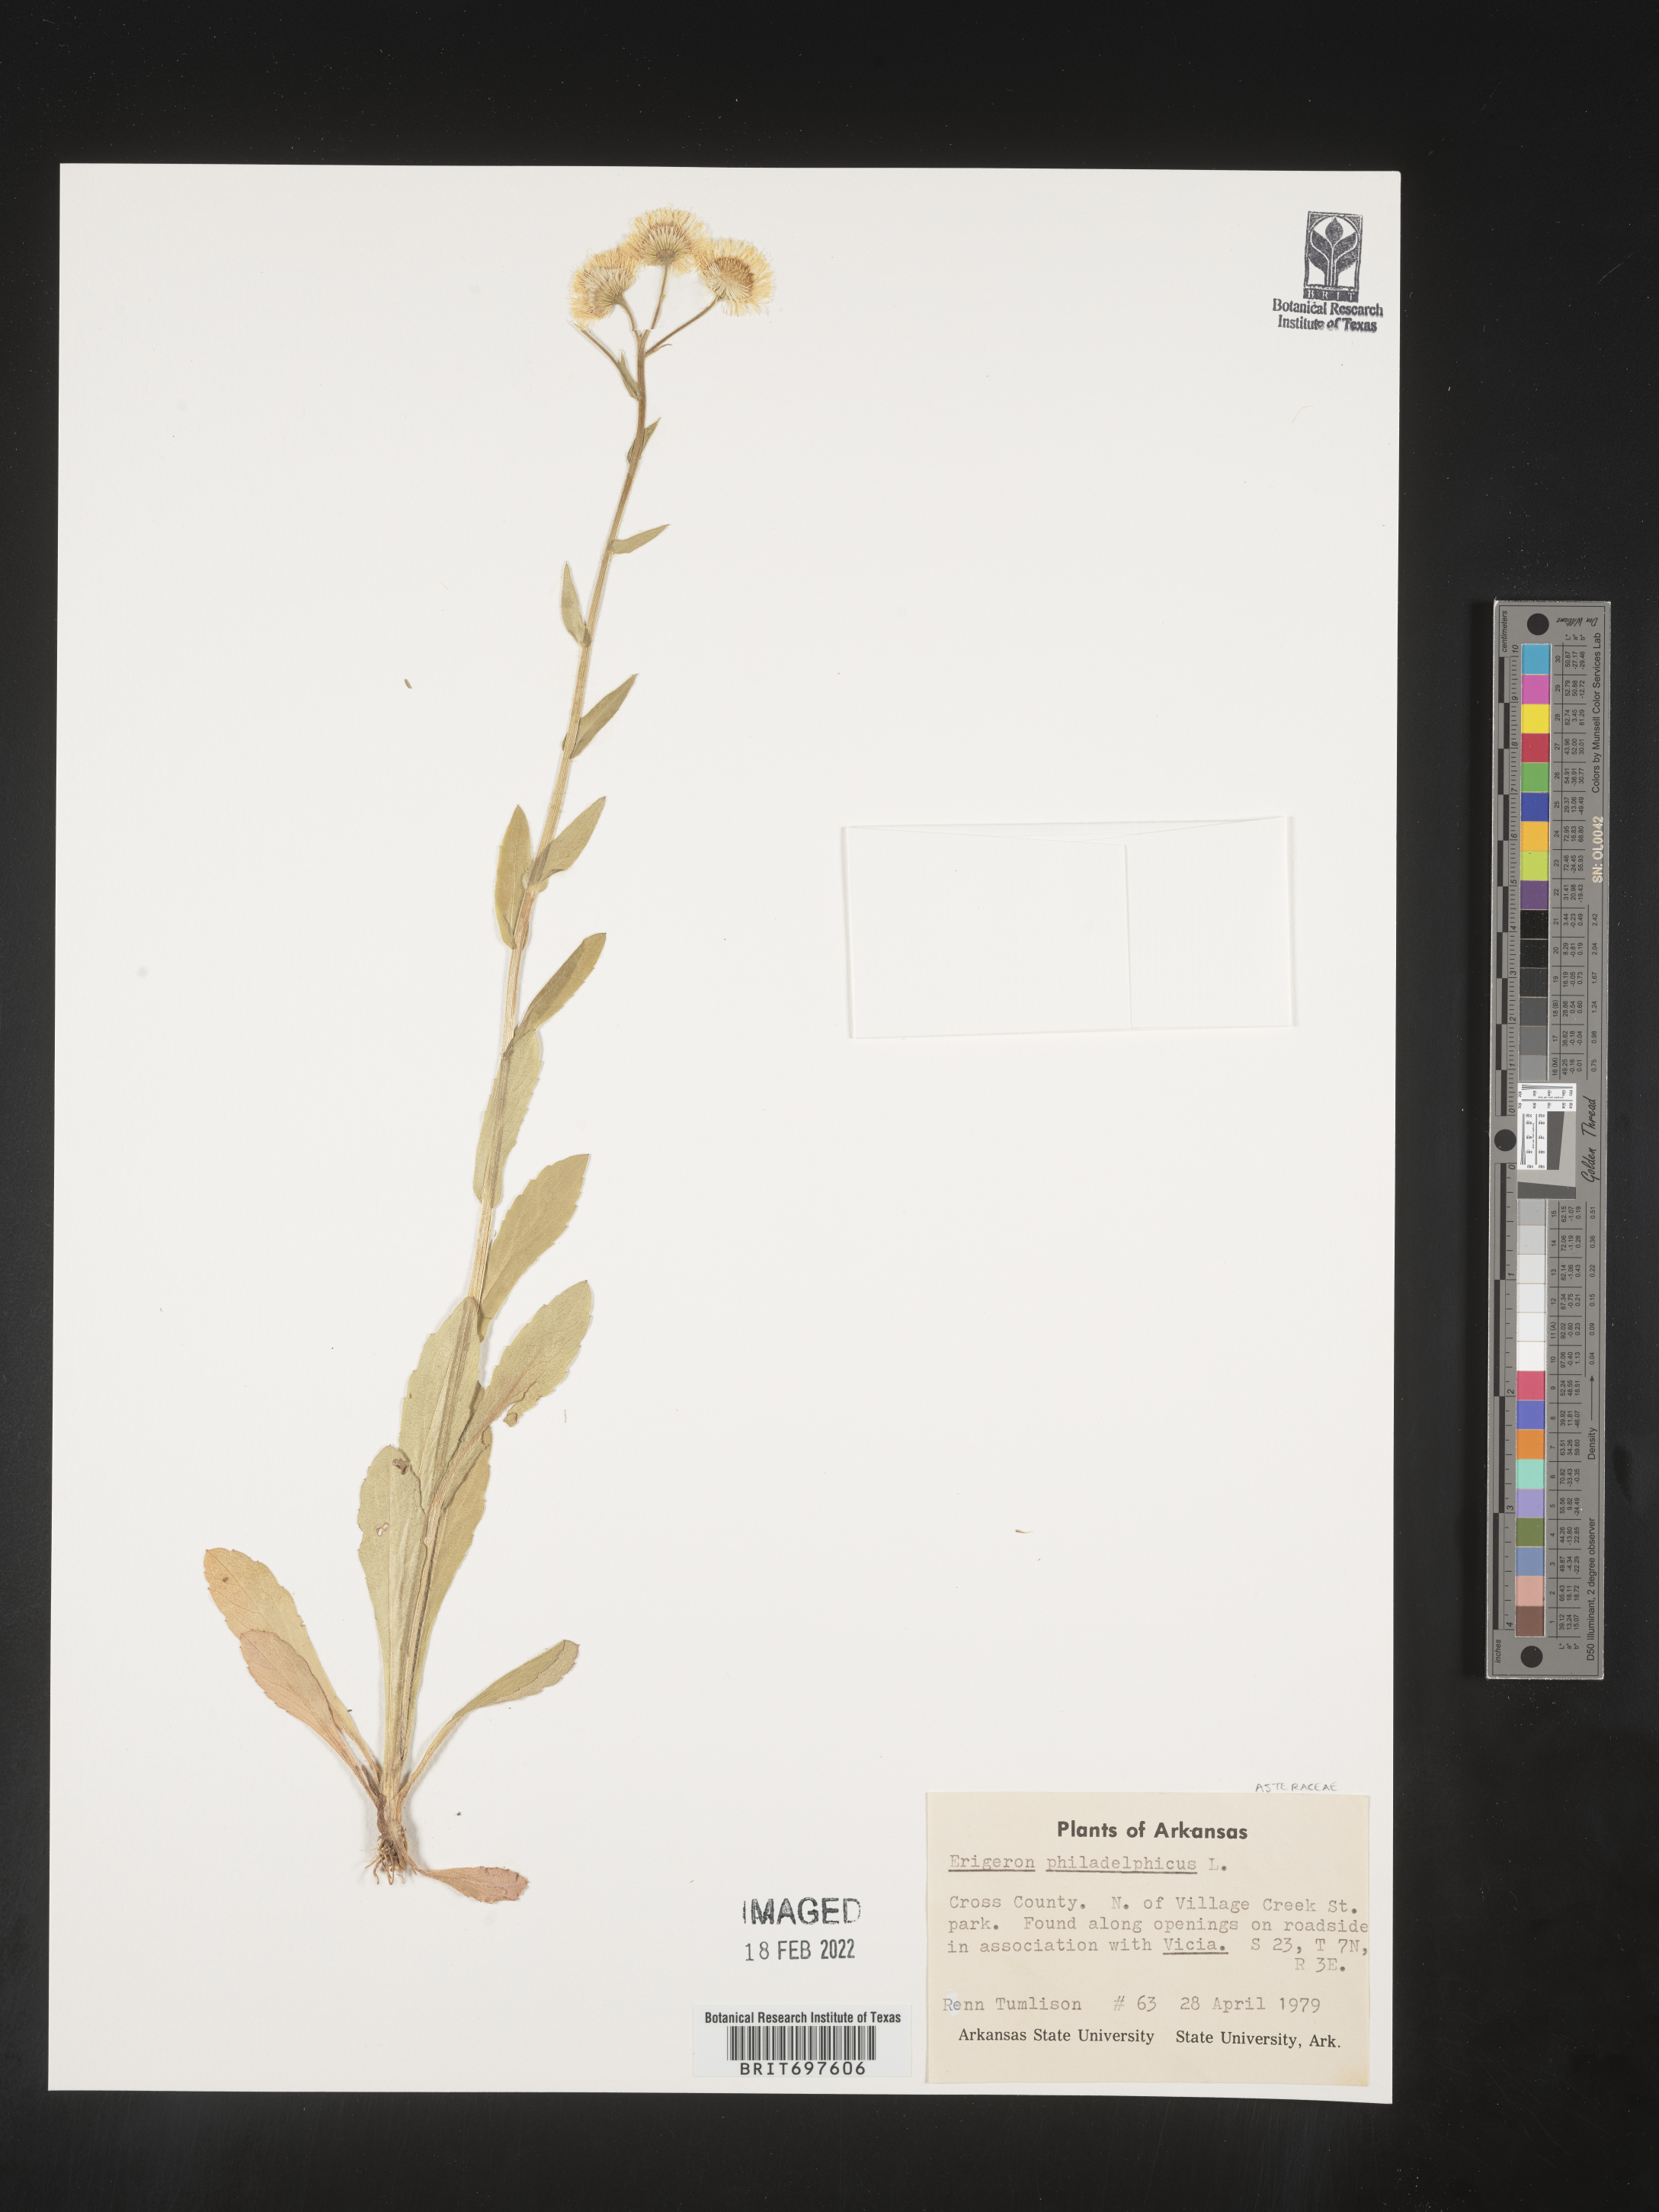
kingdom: Plantae
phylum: Tracheophyta
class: Magnoliopsida
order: Asterales
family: Asteraceae
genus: Erigeron
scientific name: Erigeron philadelphicus
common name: Robin's-plantain
